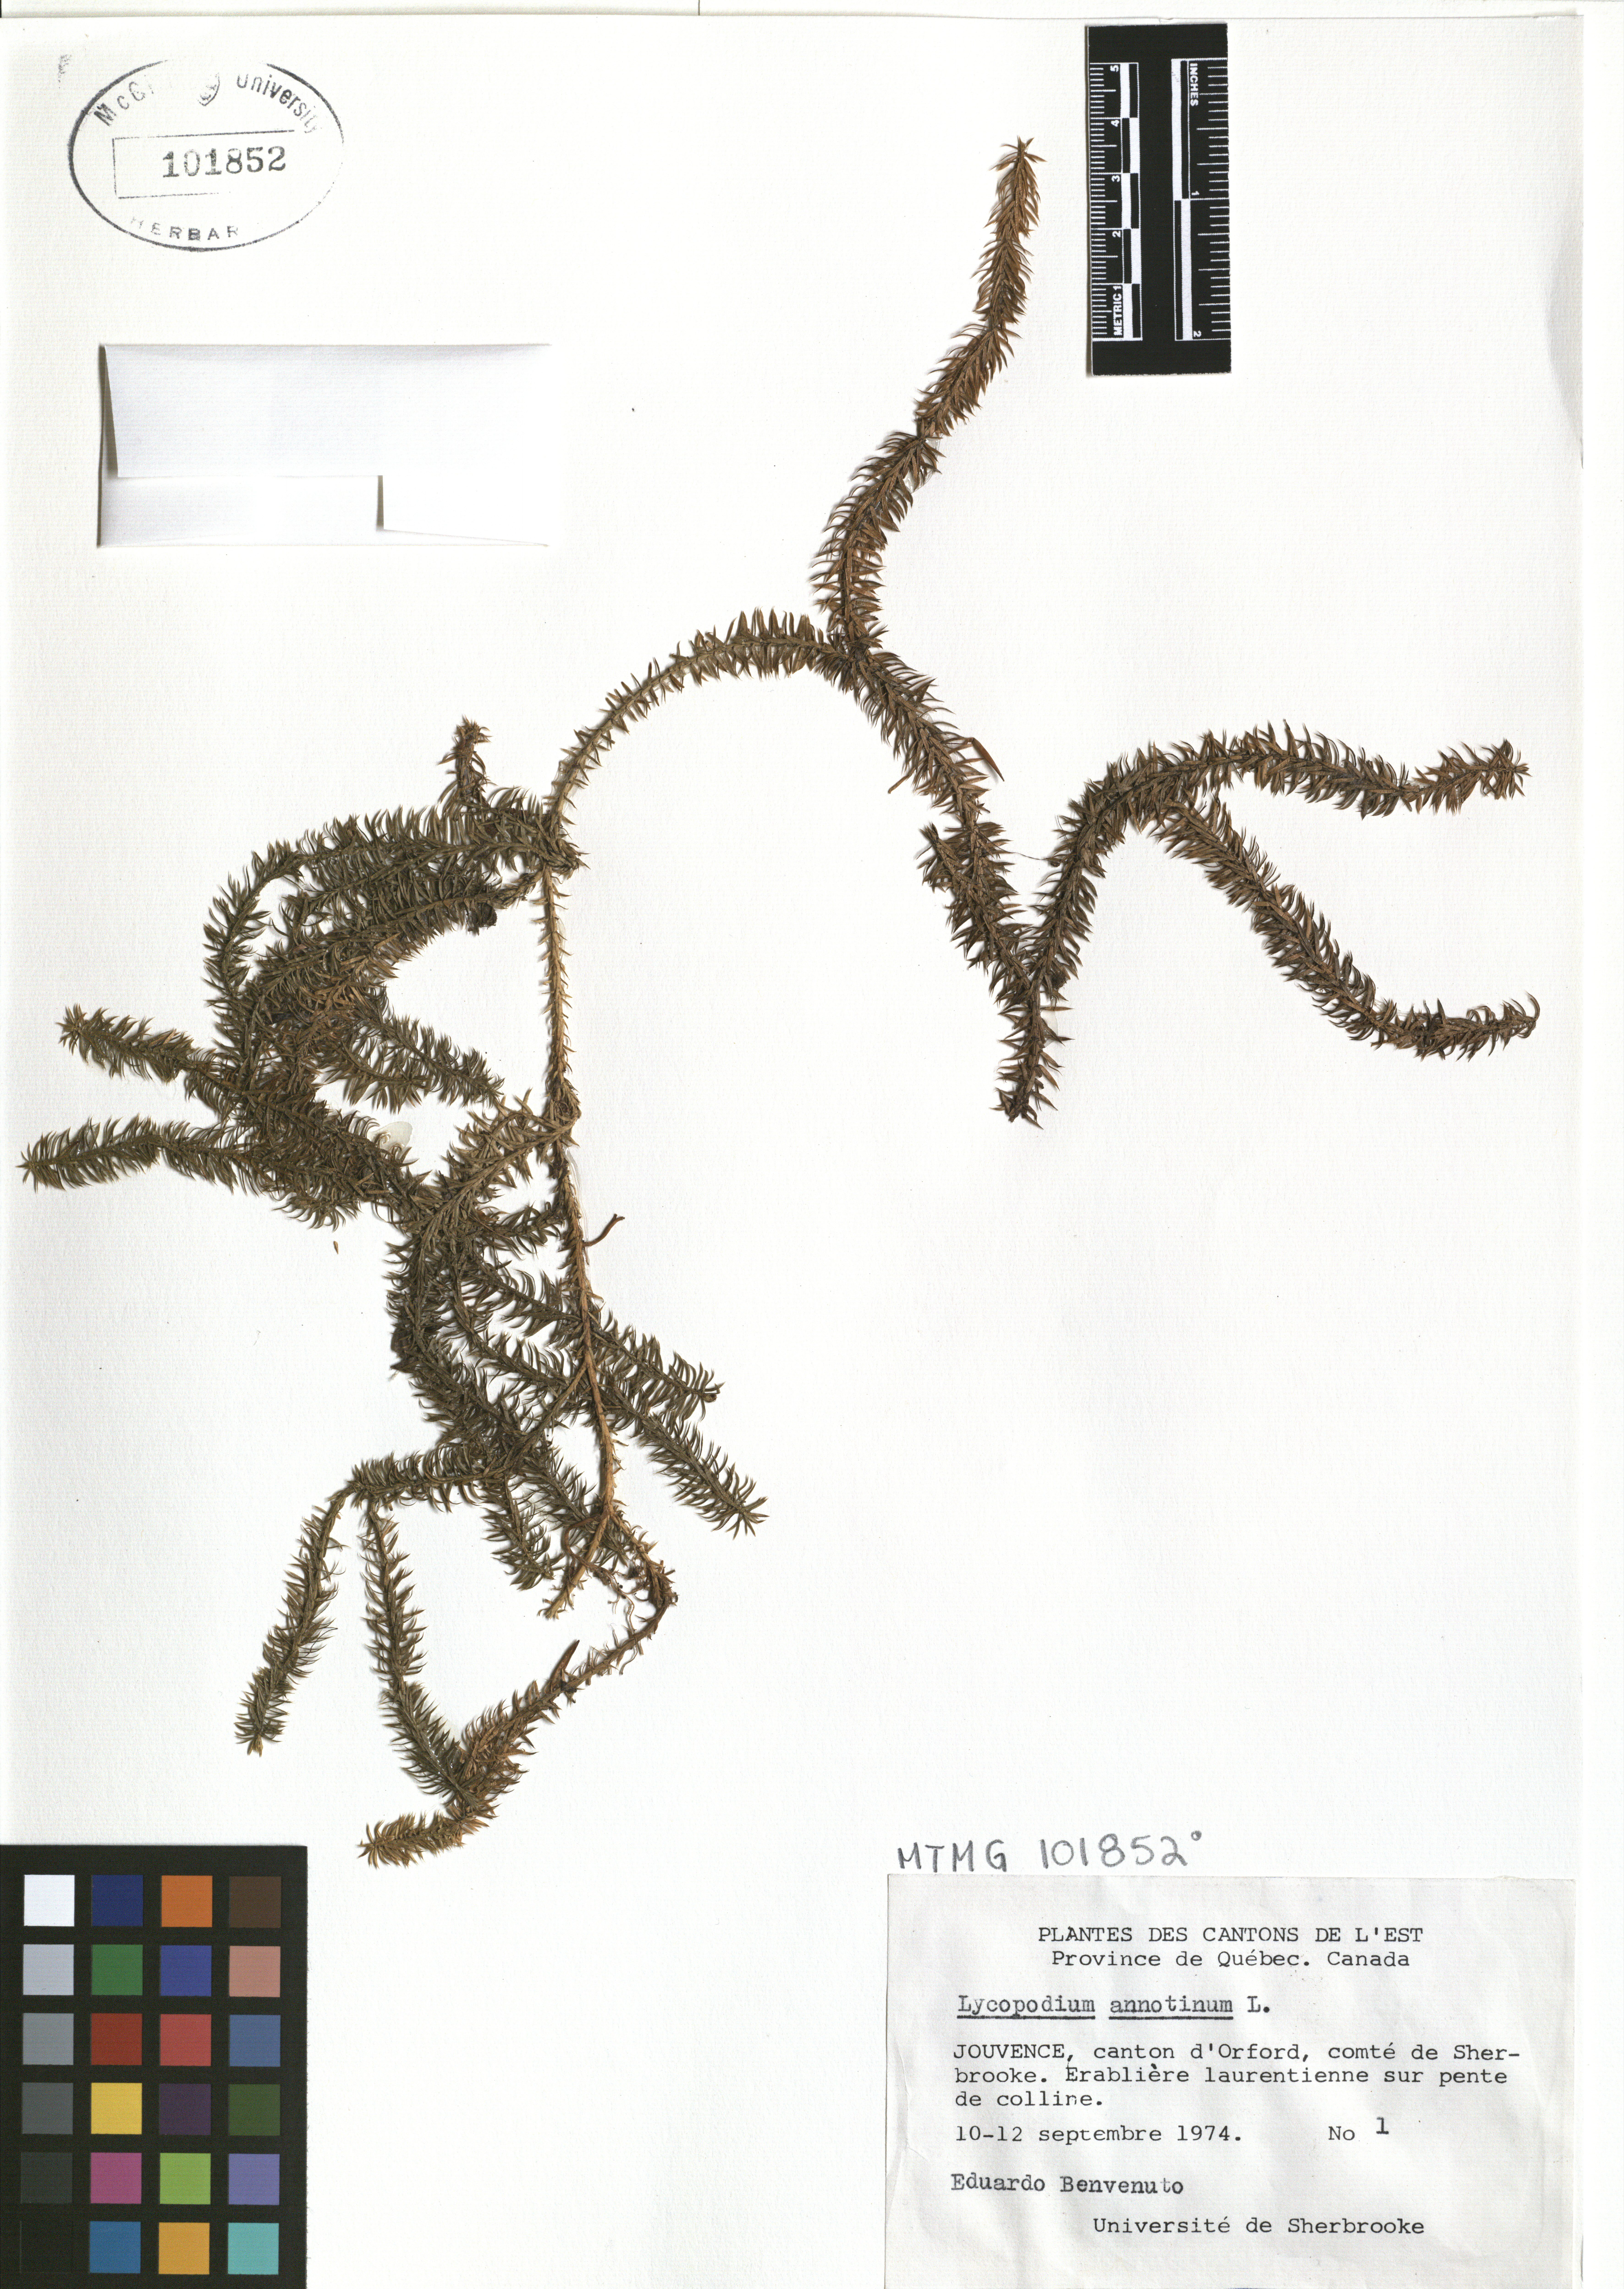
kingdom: Plantae
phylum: Tracheophyta
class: Lycopodiopsida
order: Lycopodiales
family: Lycopodiaceae
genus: Spinulum
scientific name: Spinulum annotinum
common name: Interrupted club-moss
